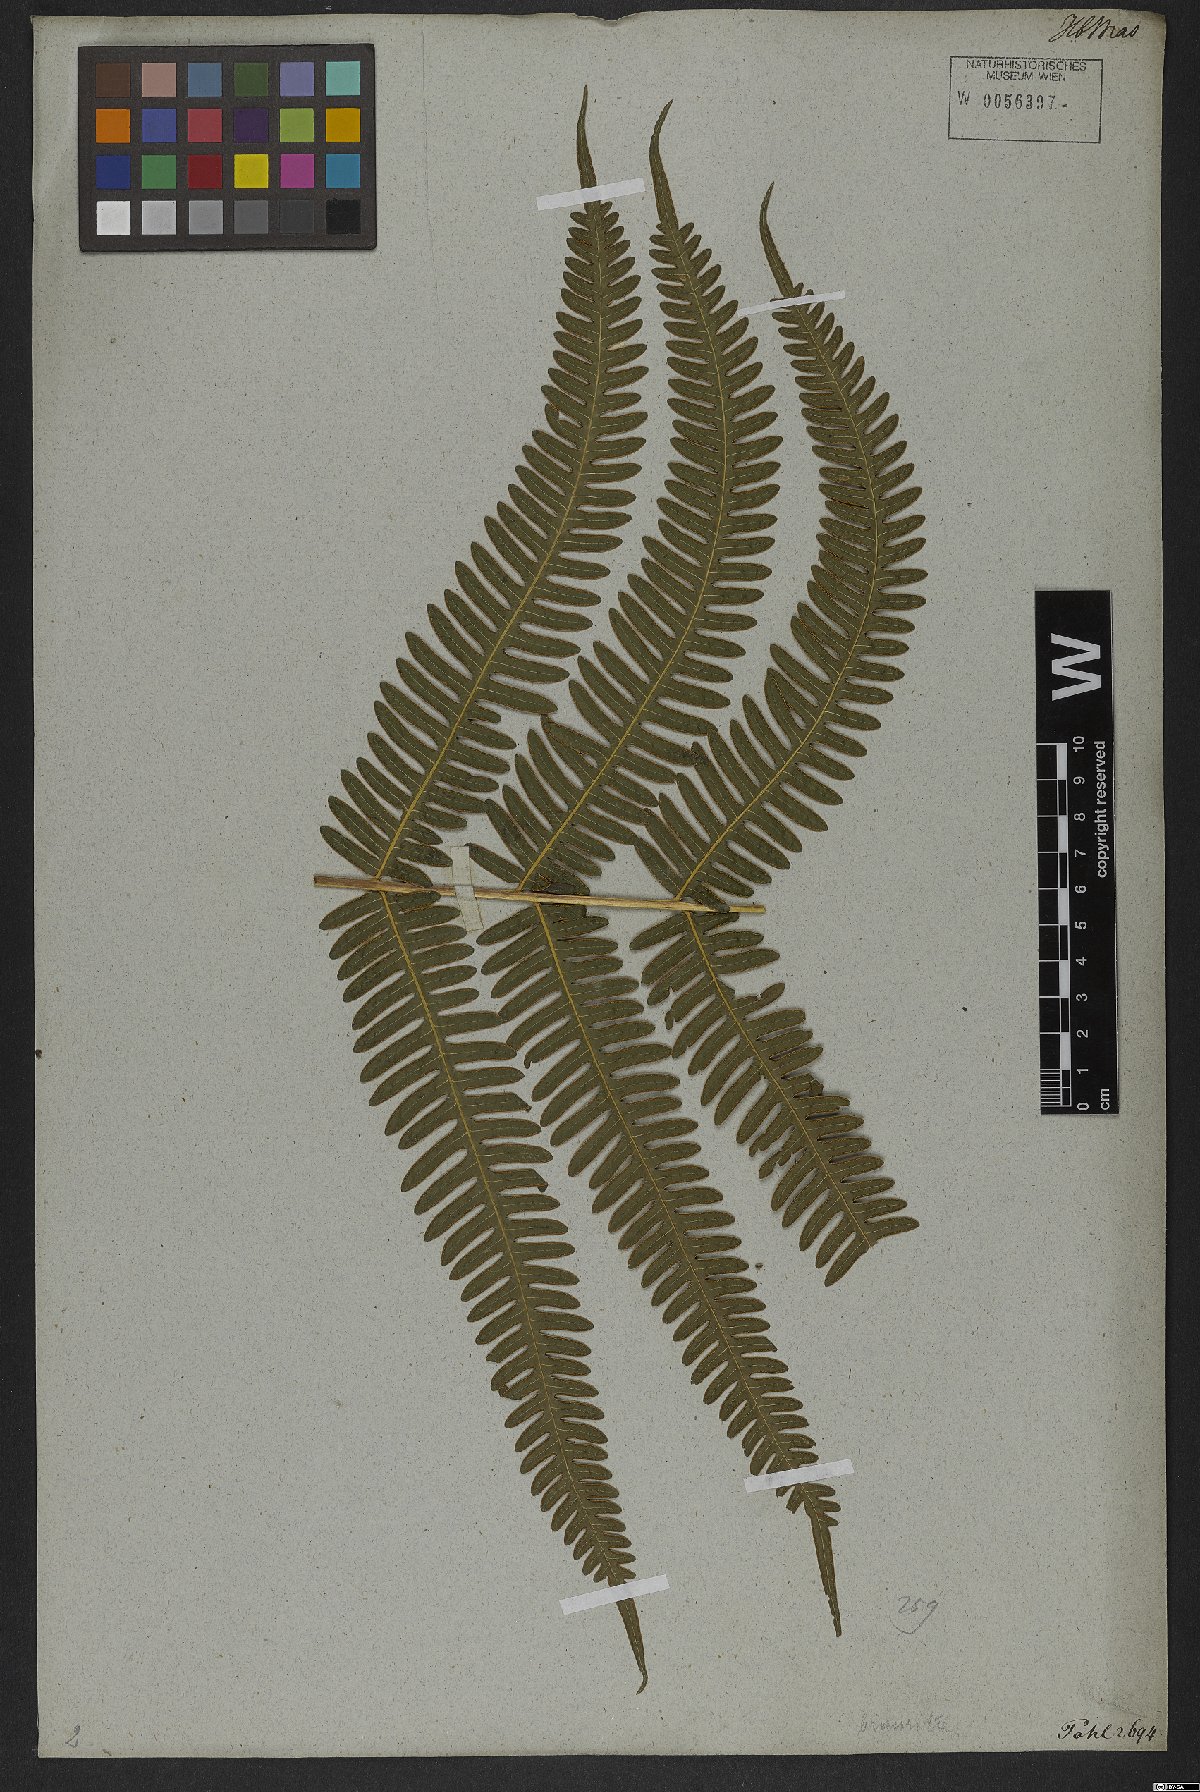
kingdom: Plantae
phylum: Tracheophyta
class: Polypodiopsida
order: Polypodiales
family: Pteridaceae
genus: Pteris
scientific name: Pteris biaurita
